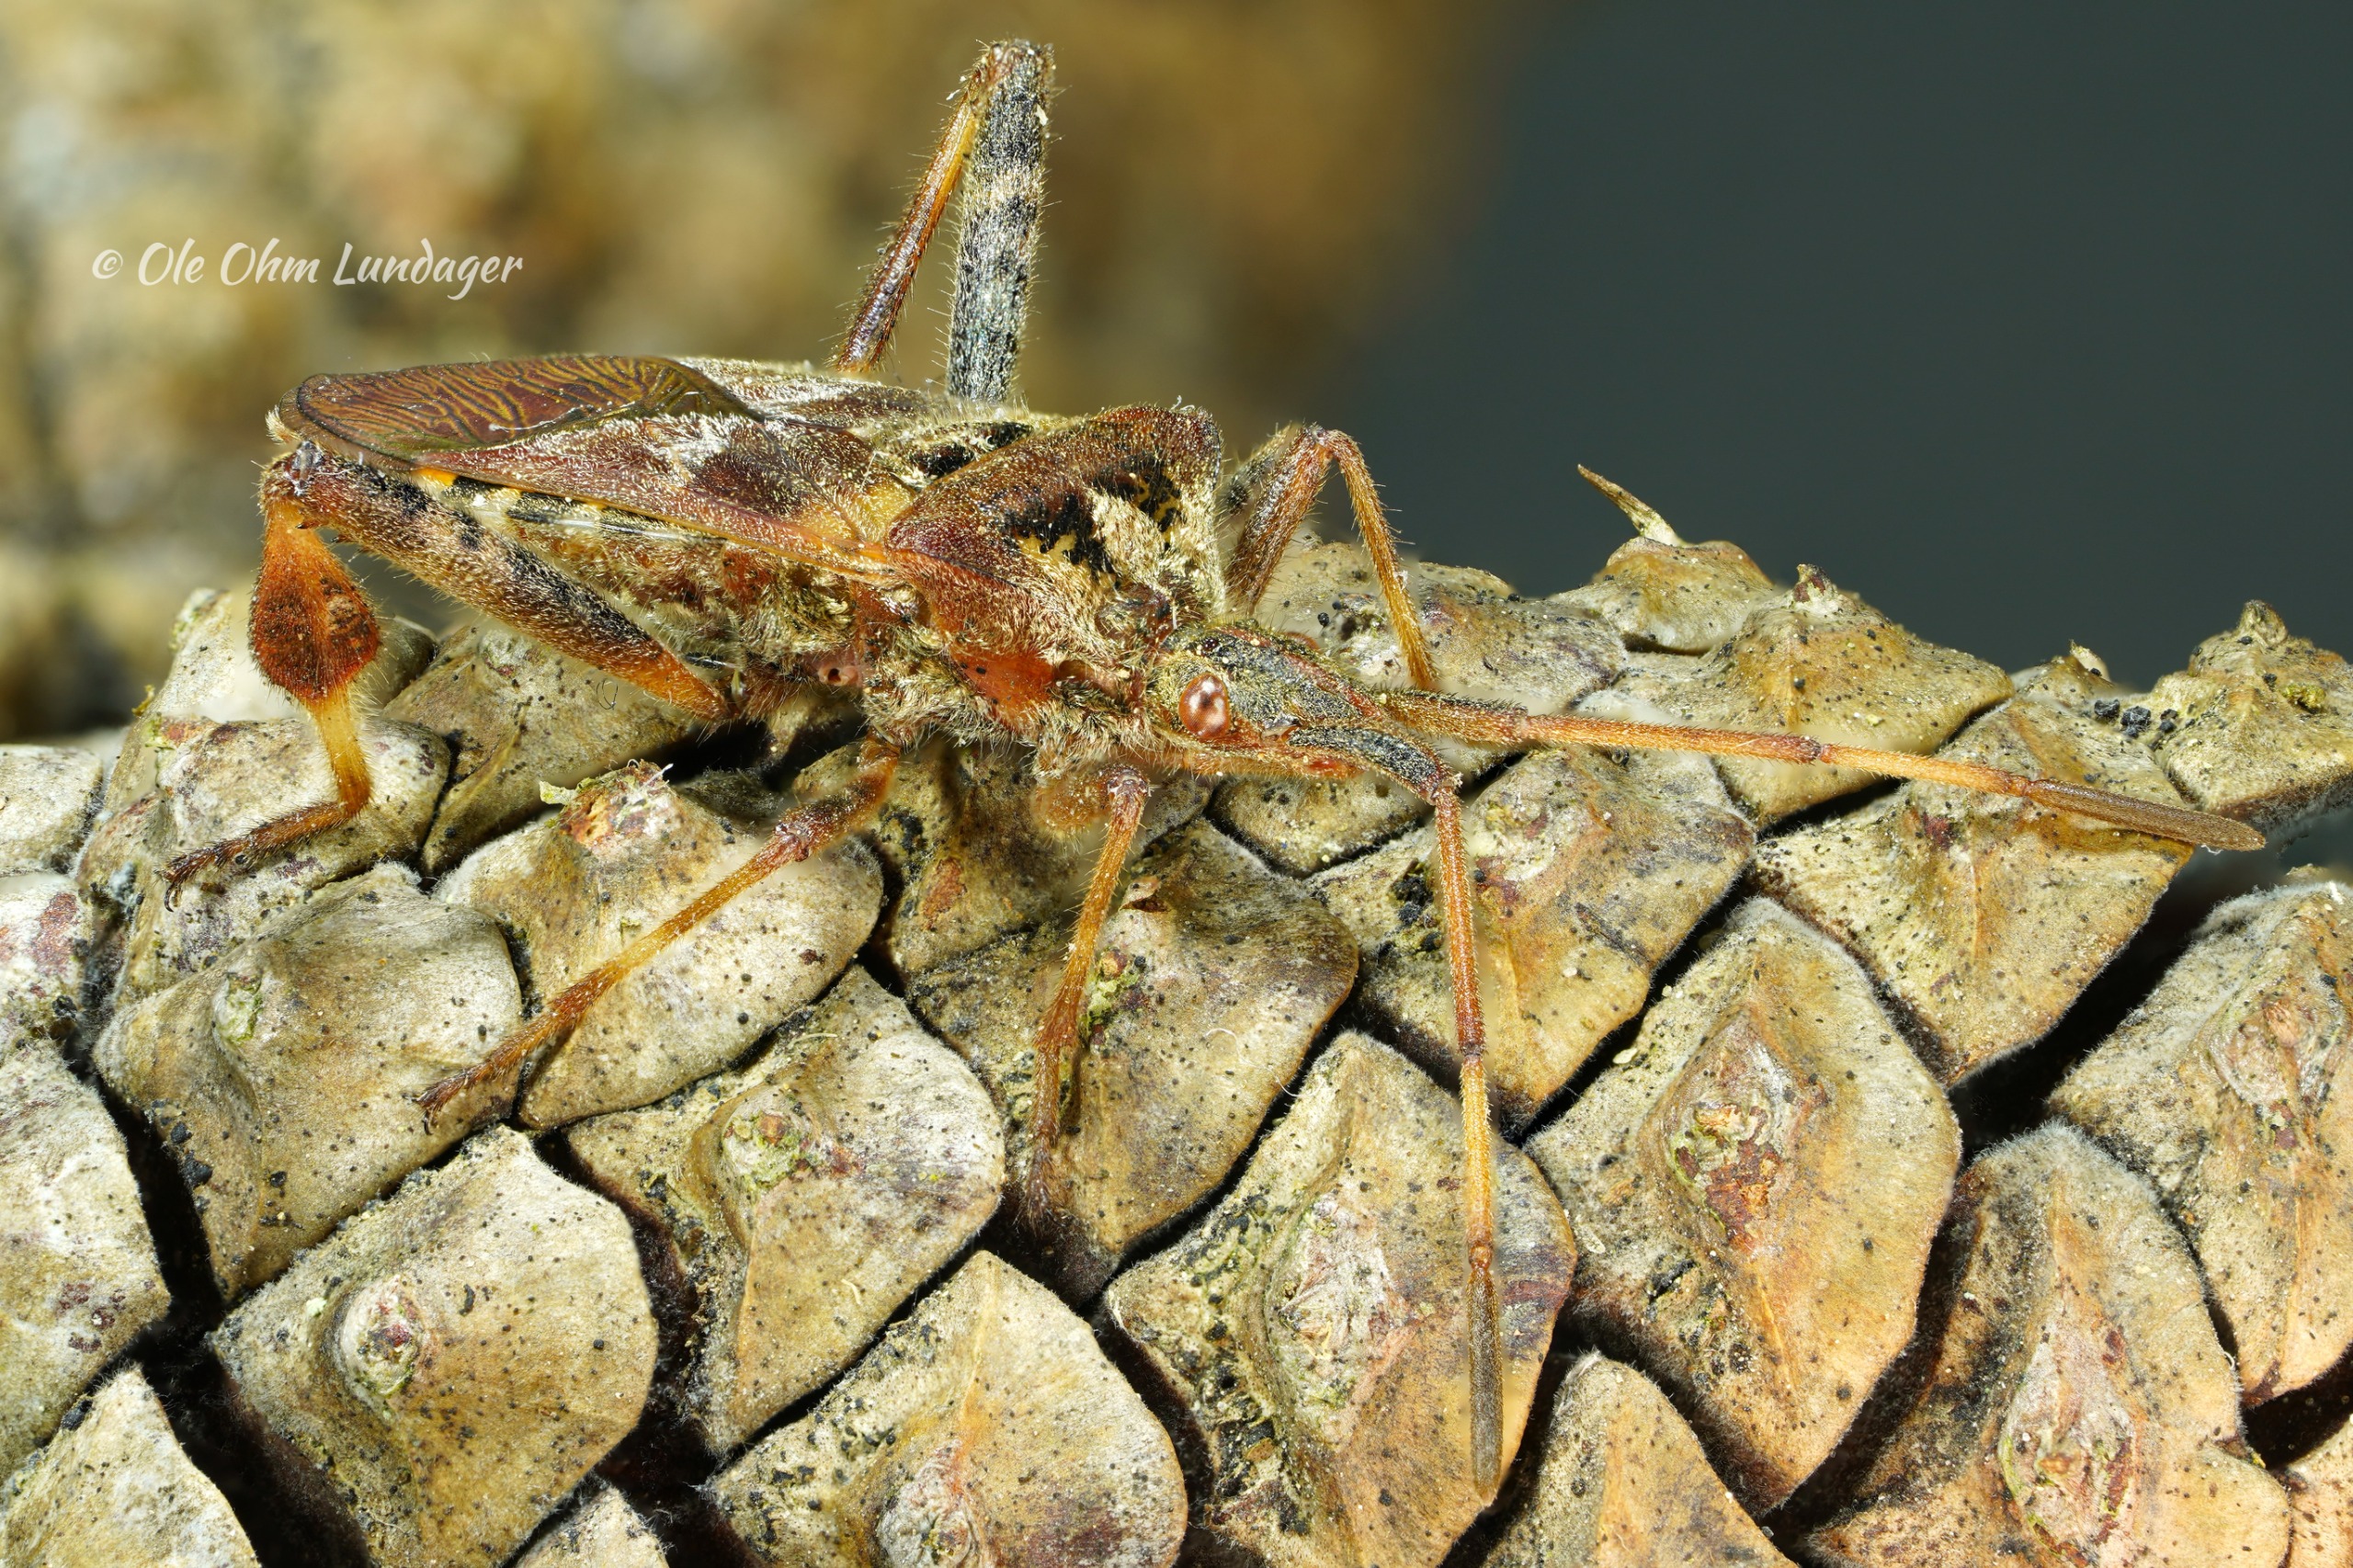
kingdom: Animalia
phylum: Arthropoda
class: Insecta
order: Hemiptera
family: Coreidae
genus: Leptoglossus
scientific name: Leptoglossus occidentalis
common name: Amerikansk fyrretæge
